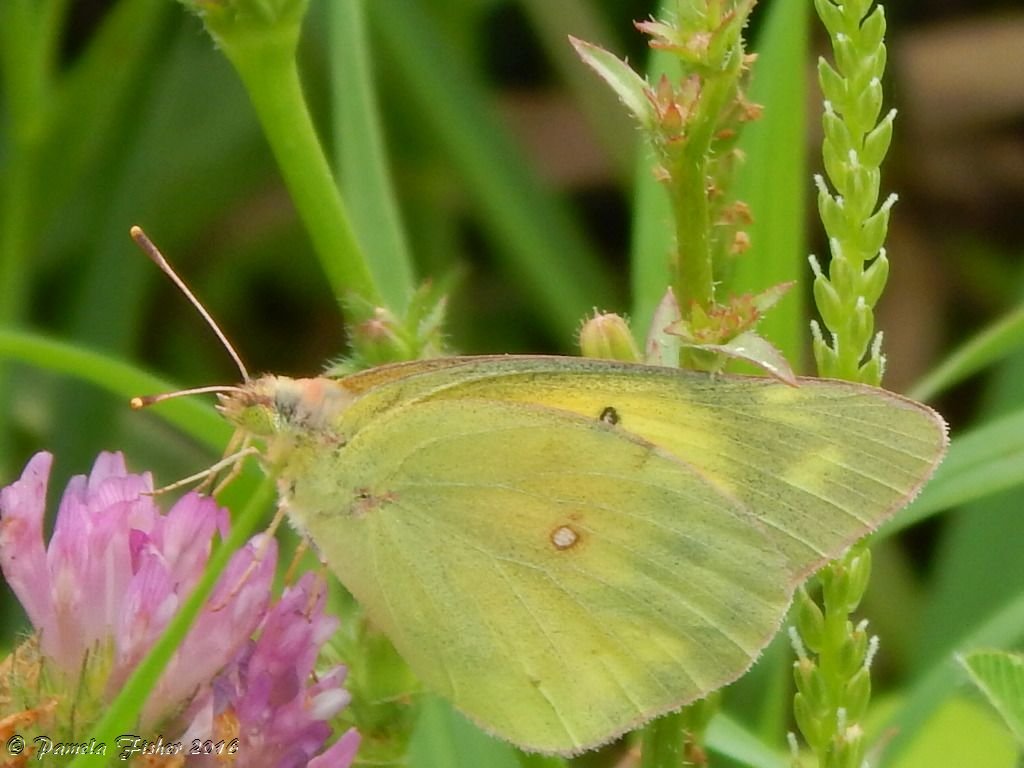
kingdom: Animalia
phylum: Arthropoda
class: Insecta
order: Lepidoptera
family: Pieridae
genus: Colias
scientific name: Colias eurytheme
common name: Orange Sulphur
